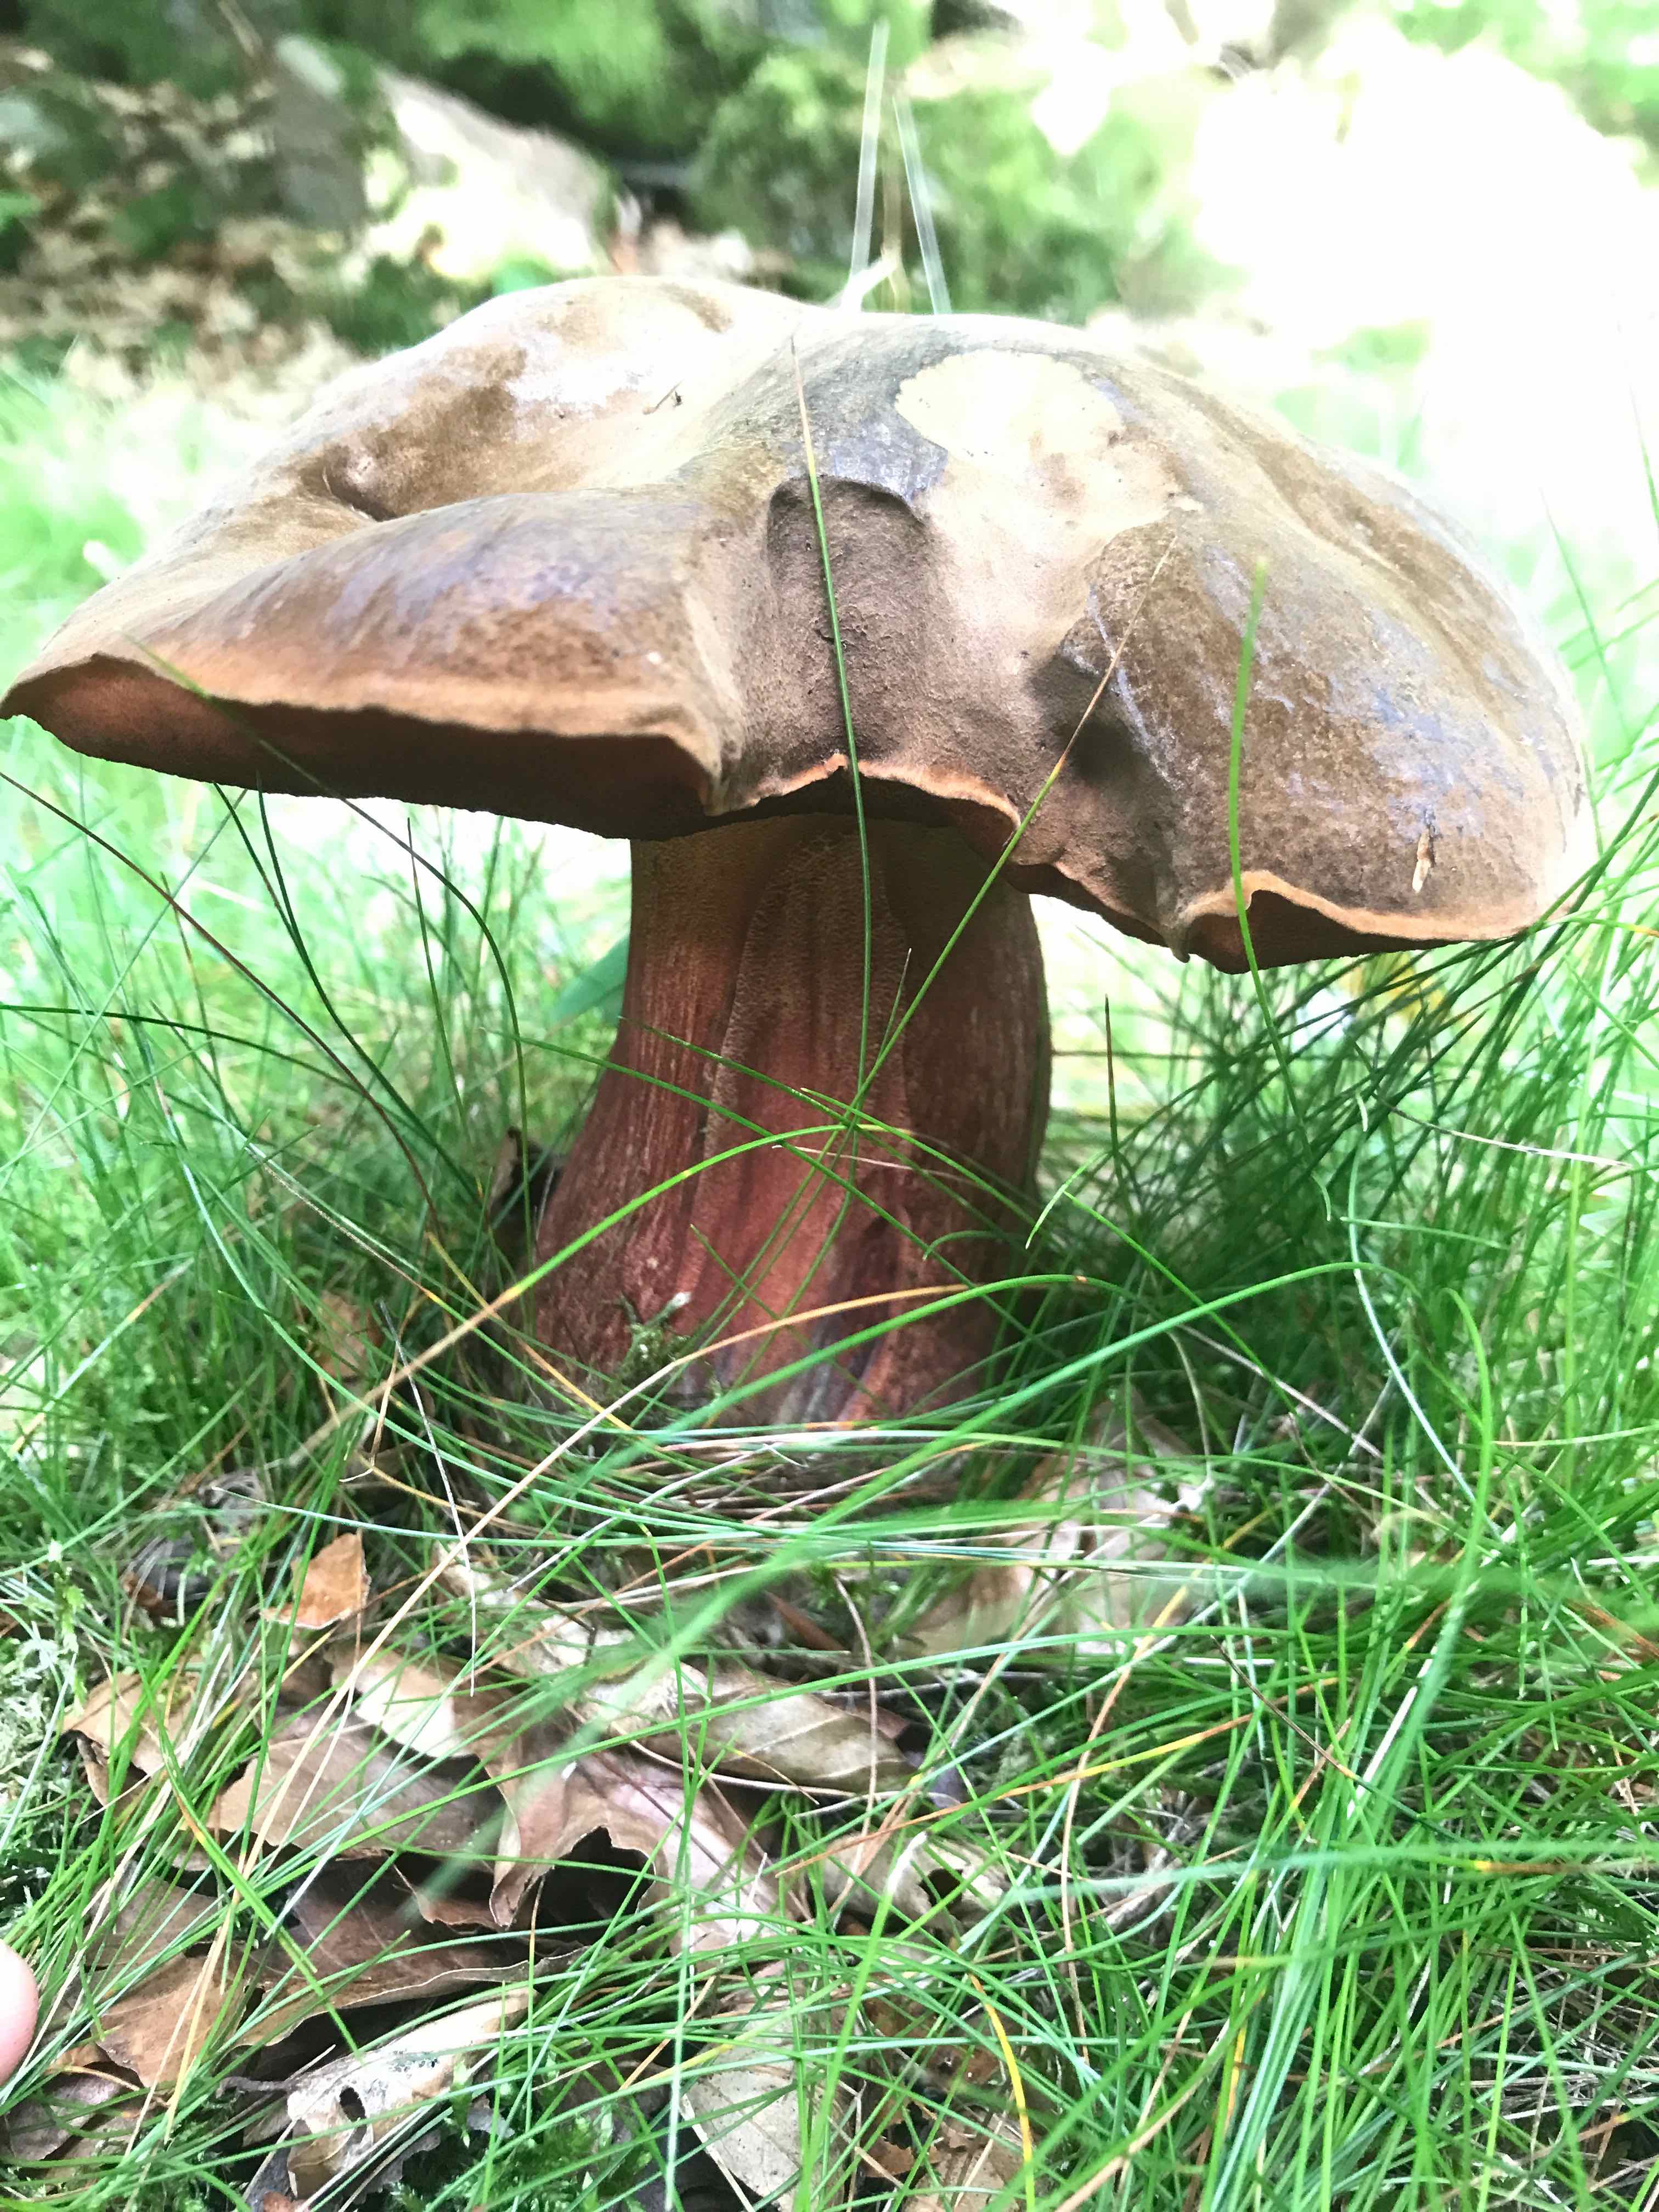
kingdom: Fungi
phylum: Basidiomycota
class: Agaricomycetes
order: Boletales
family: Boletaceae
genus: Neoboletus
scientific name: Neoboletus erythropus
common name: punktstokket indigorørhat
